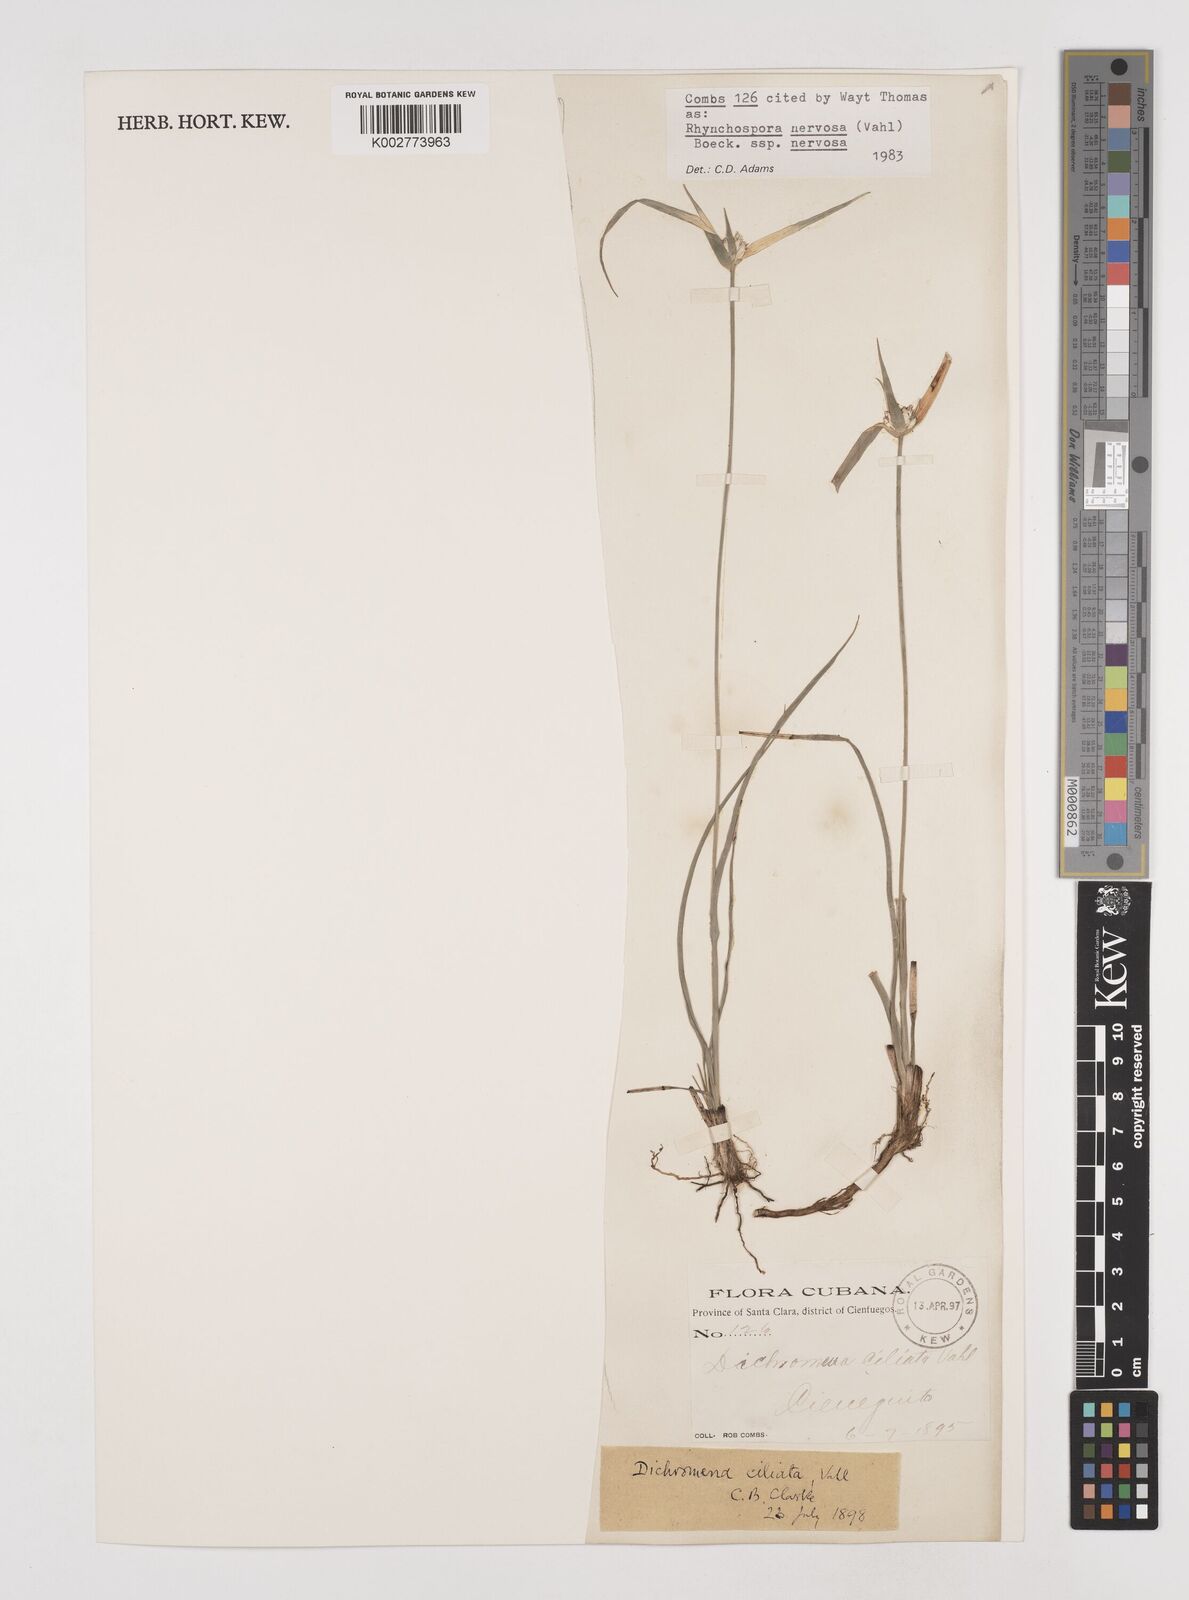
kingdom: Plantae
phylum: Tracheophyta
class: Liliopsida
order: Poales
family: Cyperaceae
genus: Rhynchospora
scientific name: Rhynchospora nervosa
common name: Star sedge
